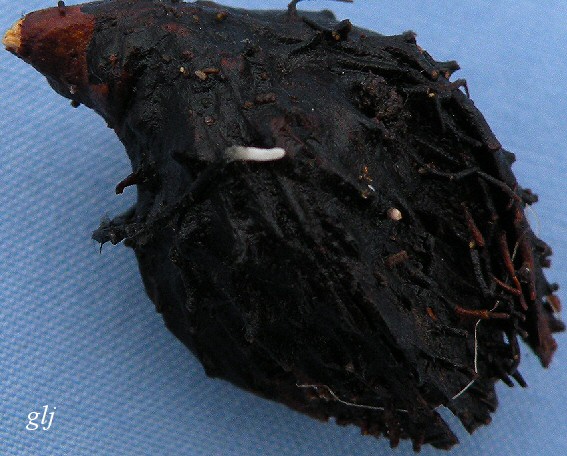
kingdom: Fungi
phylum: Ascomycota
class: Sordariomycetes
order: Xylariales
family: Xylariaceae
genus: Xylaria
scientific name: Xylaria carpophila
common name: bogskål-stødsvamp
